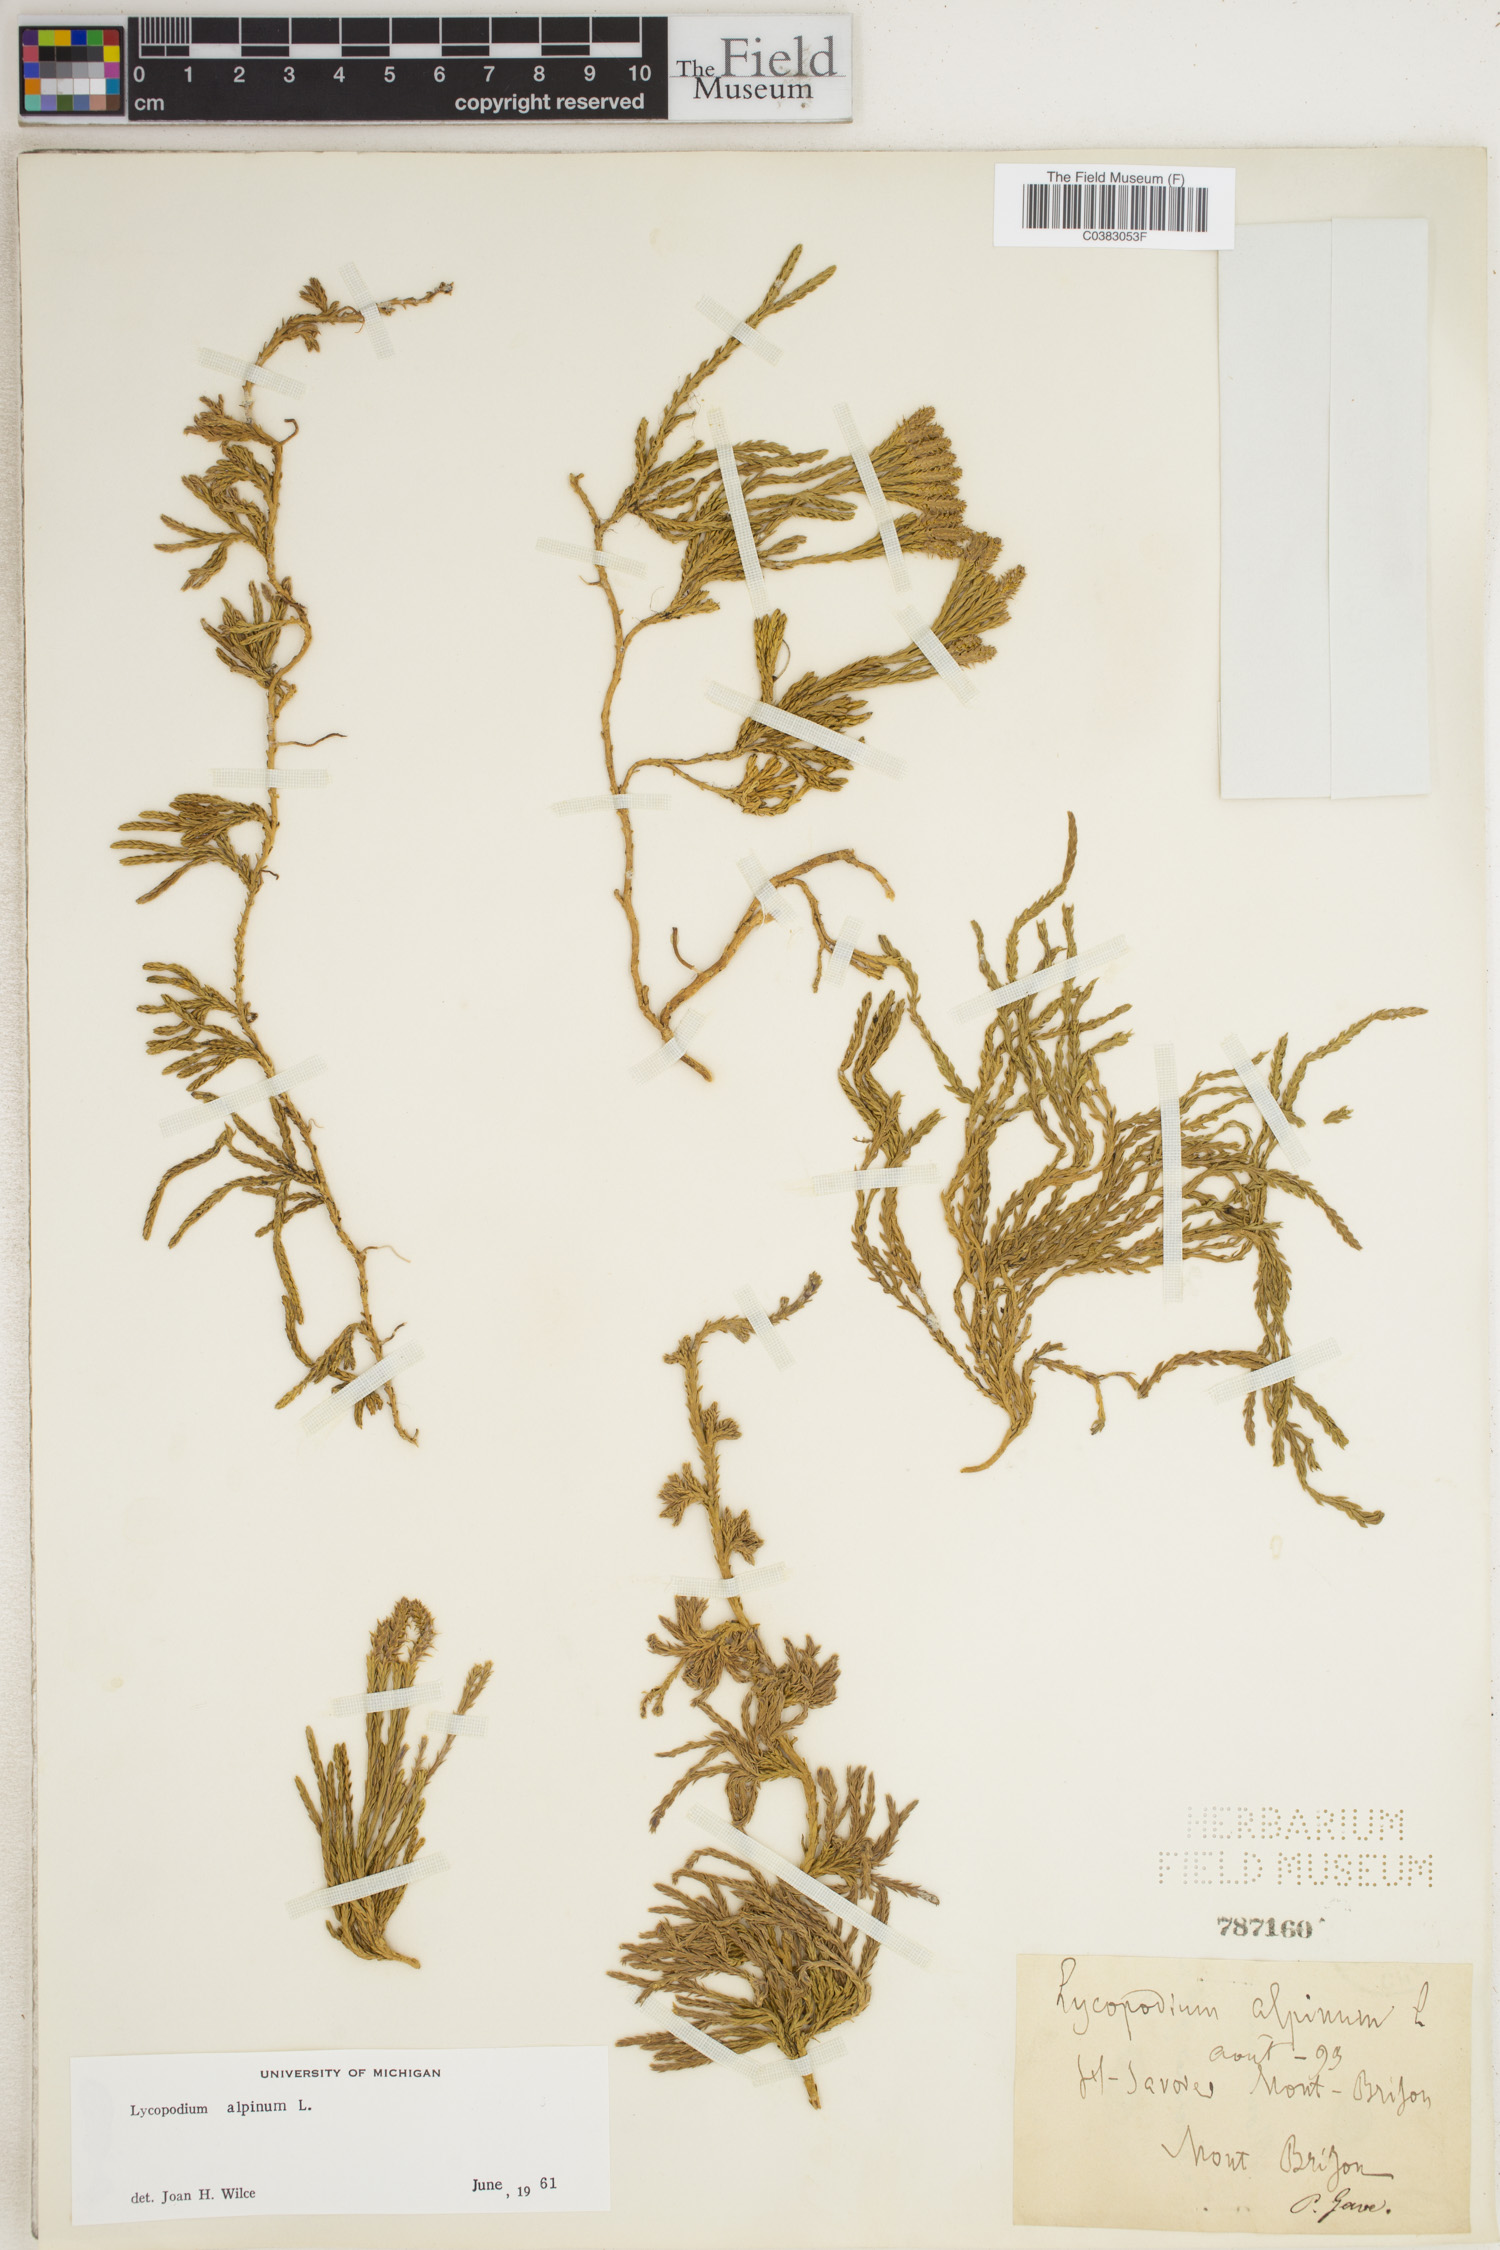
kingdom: Plantae
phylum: Tracheophyta
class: Lycopodiopsida
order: Lycopodiales
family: Lycopodiaceae
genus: Diphasiastrum
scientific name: Diphasiastrum alpinum
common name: Alpine clubmoss
